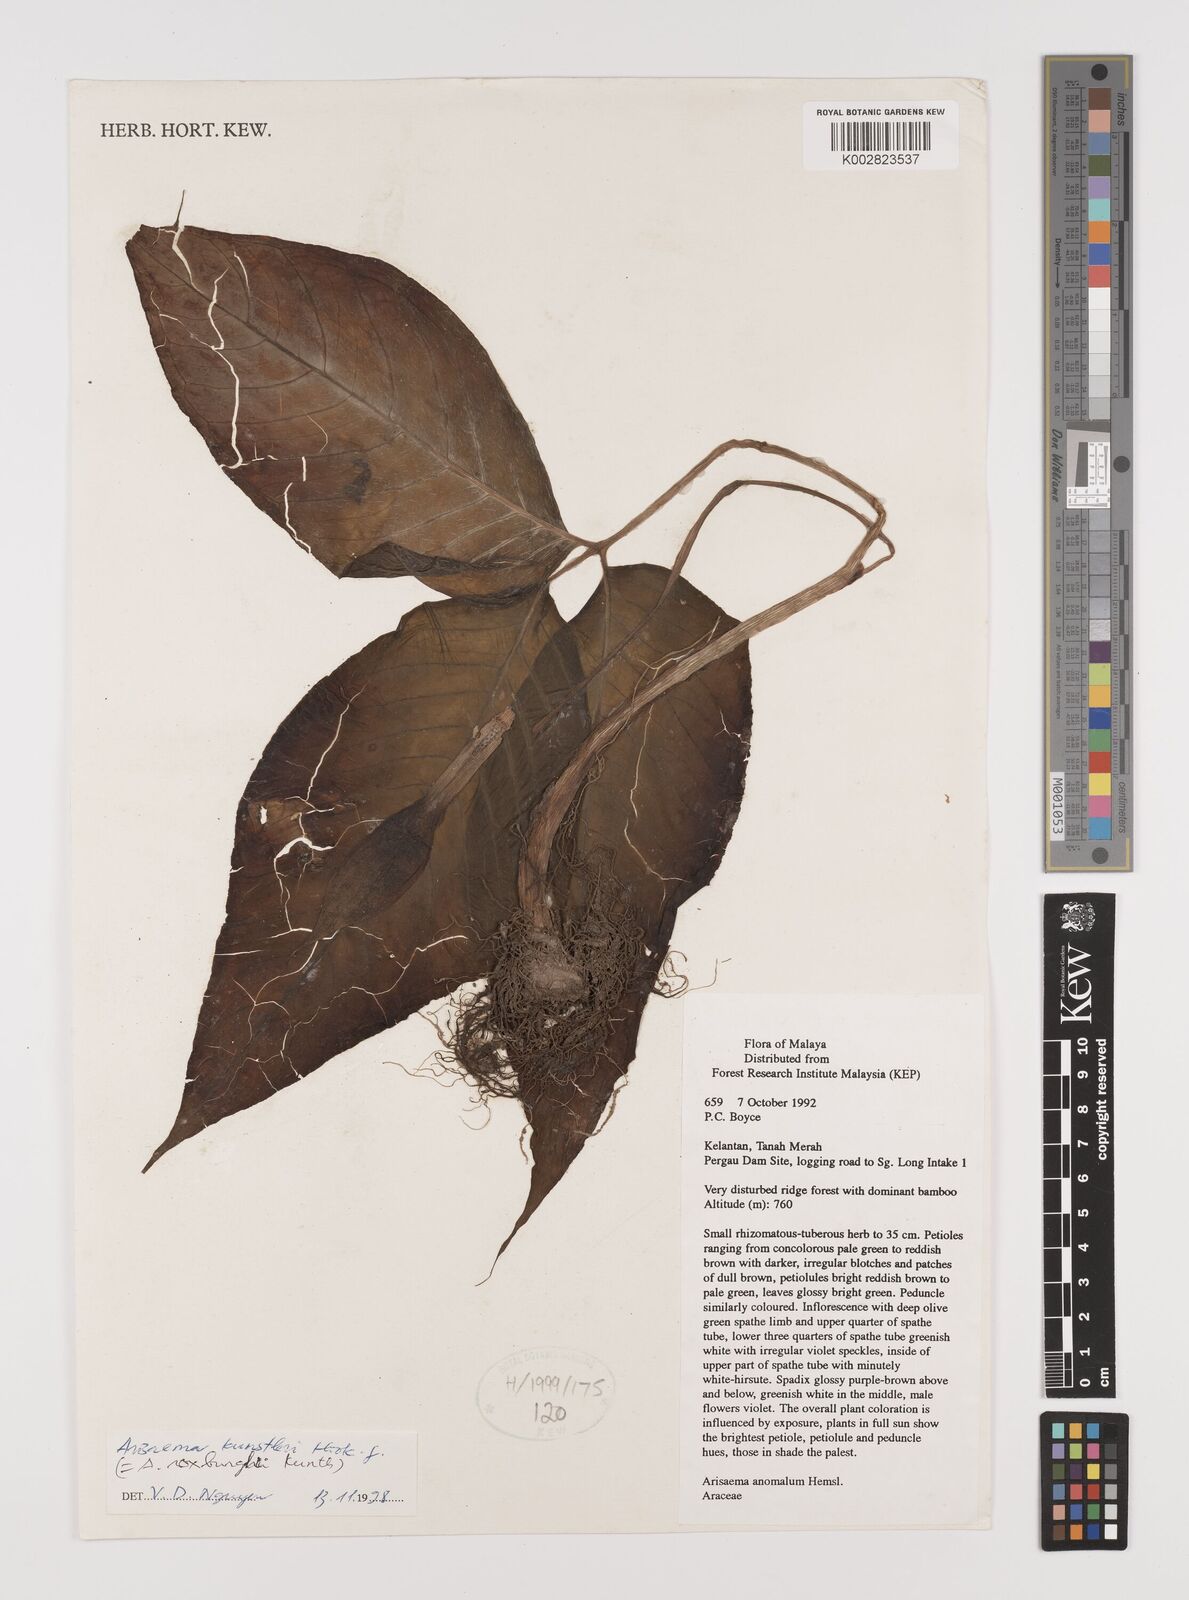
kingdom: Plantae
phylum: Tracheophyta
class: Liliopsida
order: Alismatales
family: Araceae
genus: Arisaema
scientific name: Arisaema
